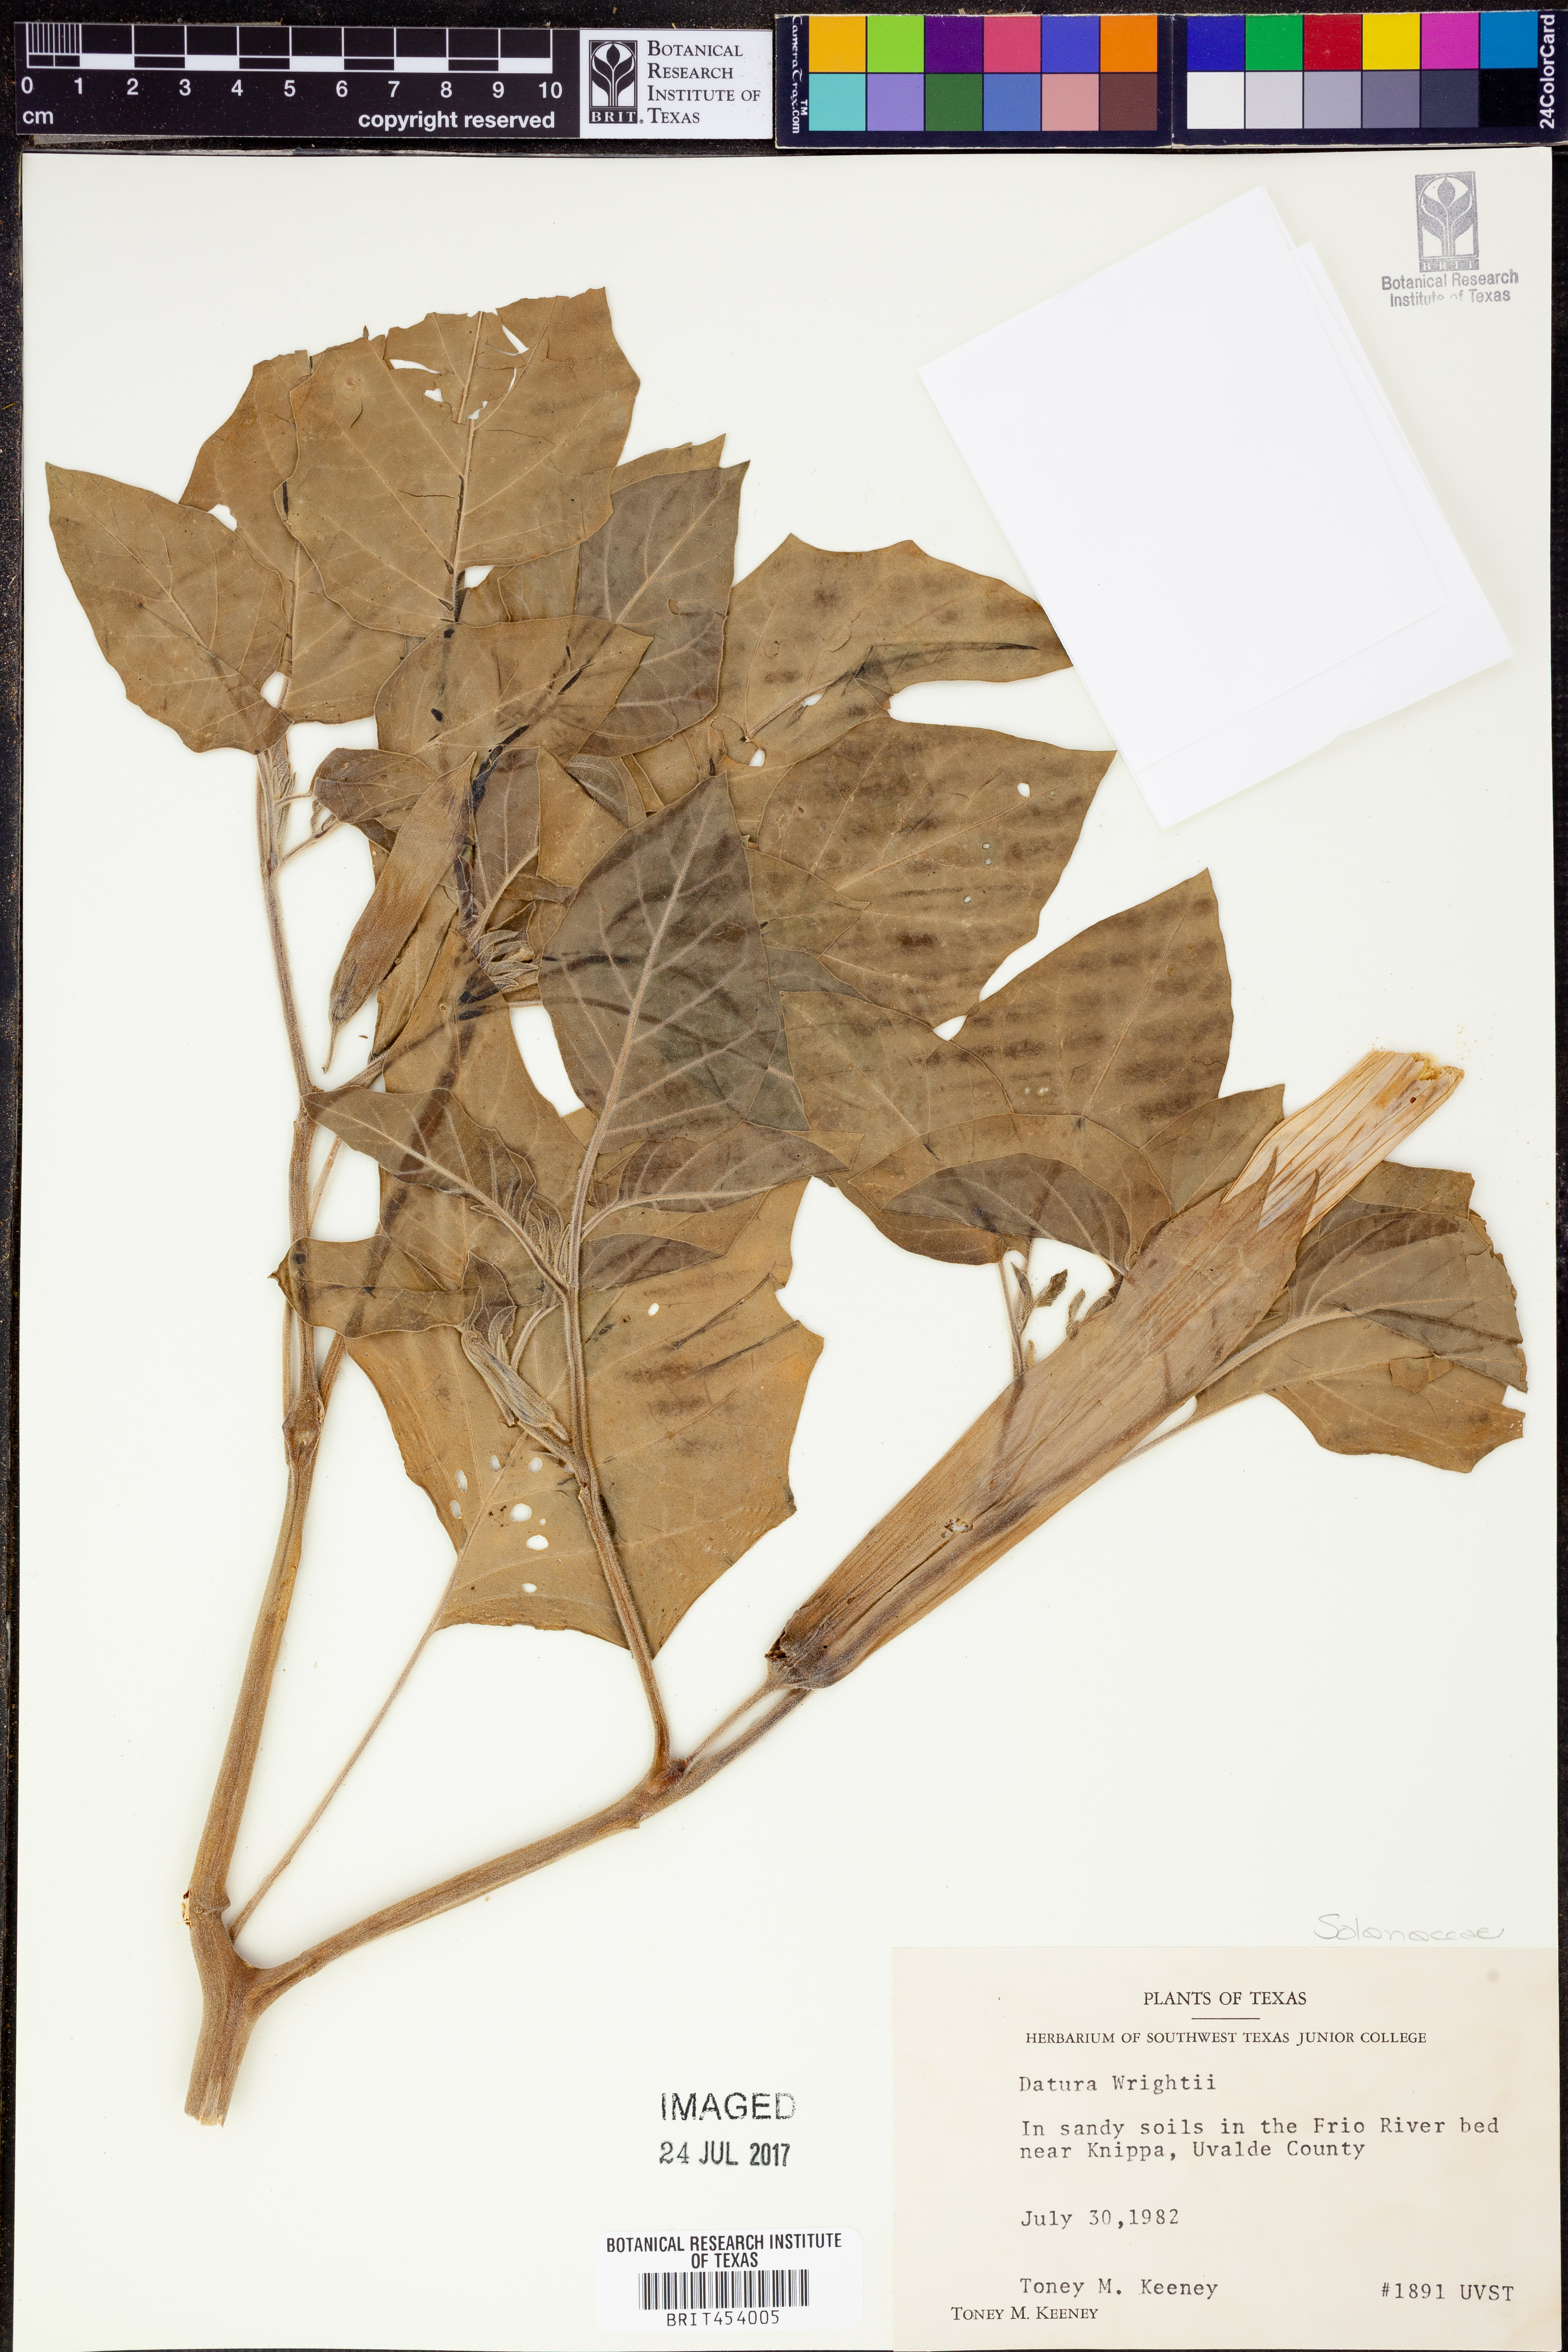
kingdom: Plantae
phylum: Tracheophyta
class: Magnoliopsida
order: Solanales
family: Solanaceae
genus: Datura
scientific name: Datura wrightii
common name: Sacred thorn-apple
